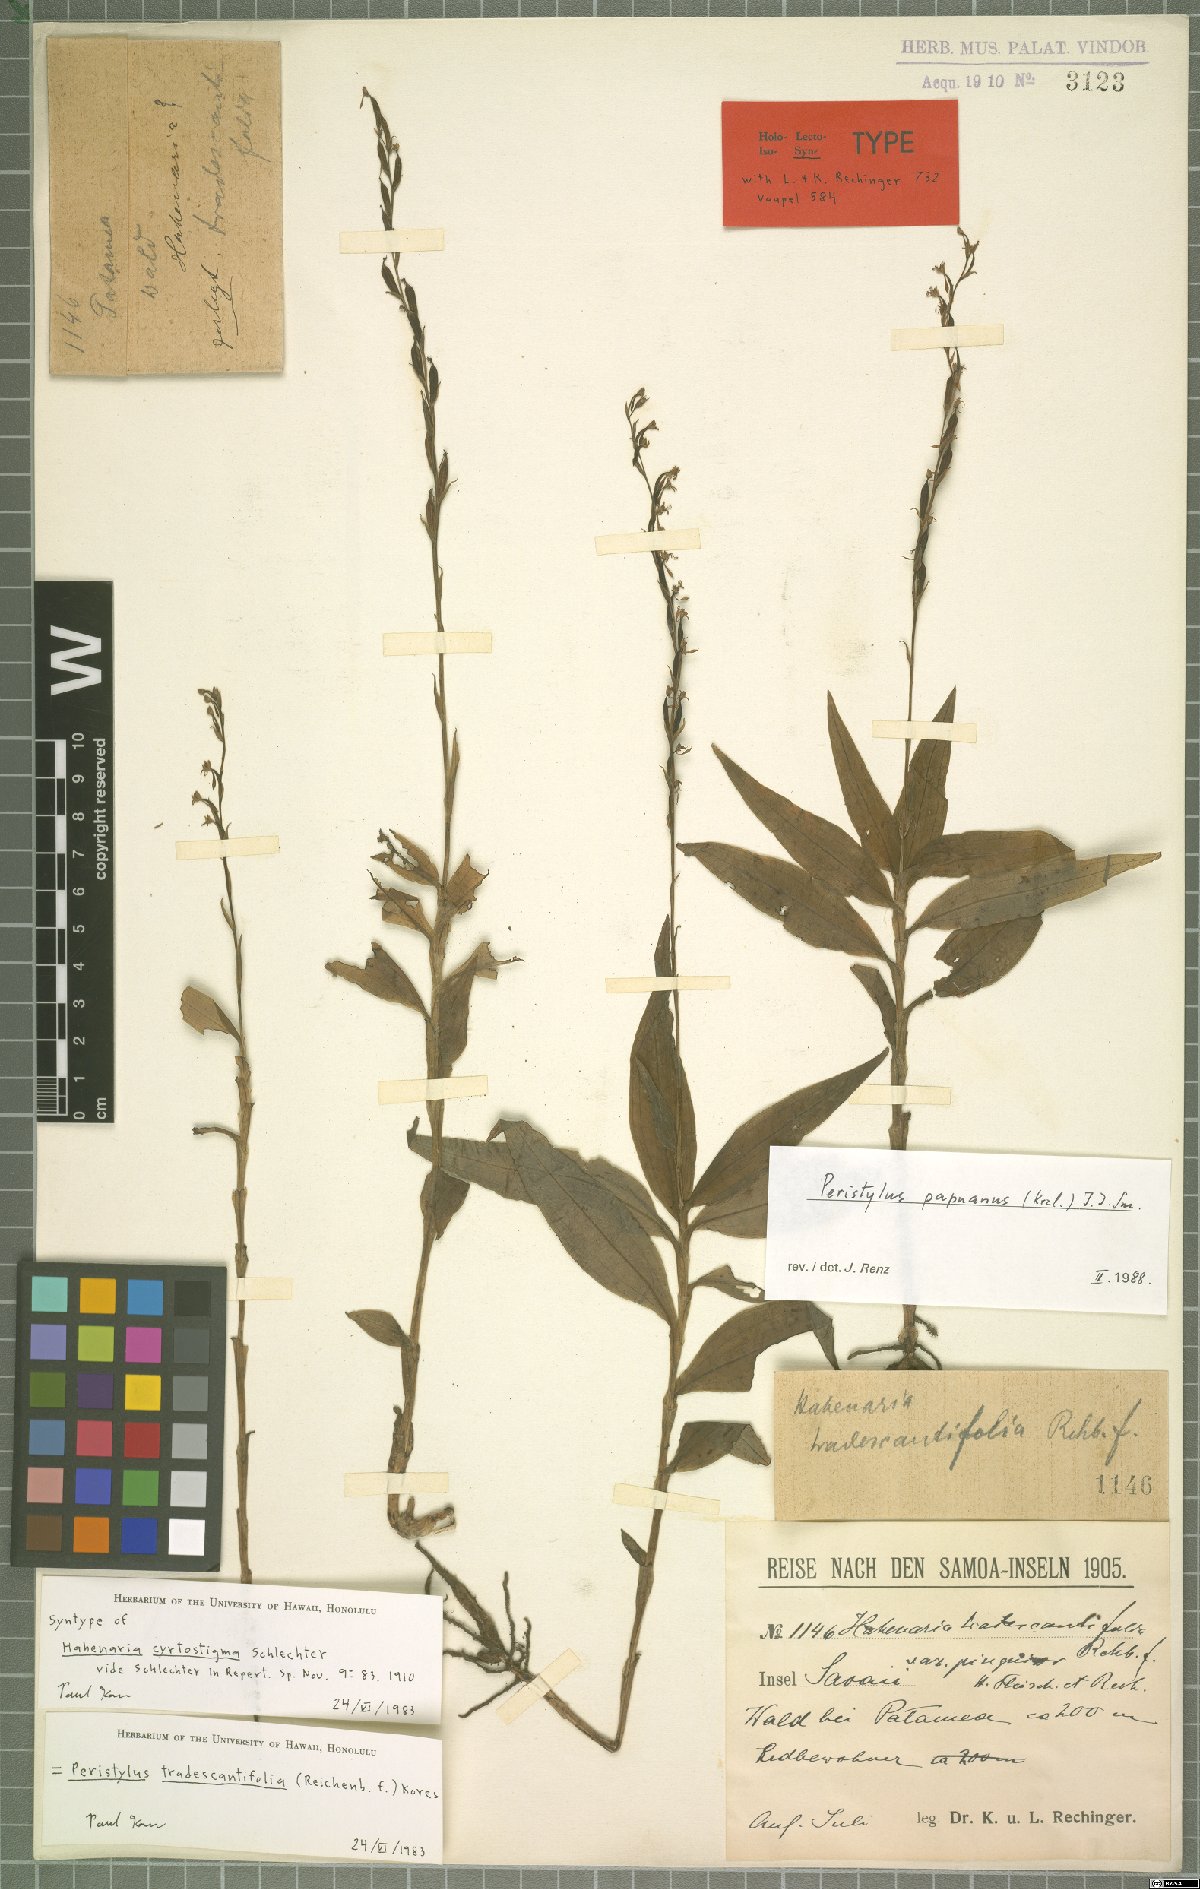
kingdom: Plantae
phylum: Tracheophyta
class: Liliopsida
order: Asparagales
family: Orchidaceae
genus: Peristylus
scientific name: Peristylus tradescantiifolius
